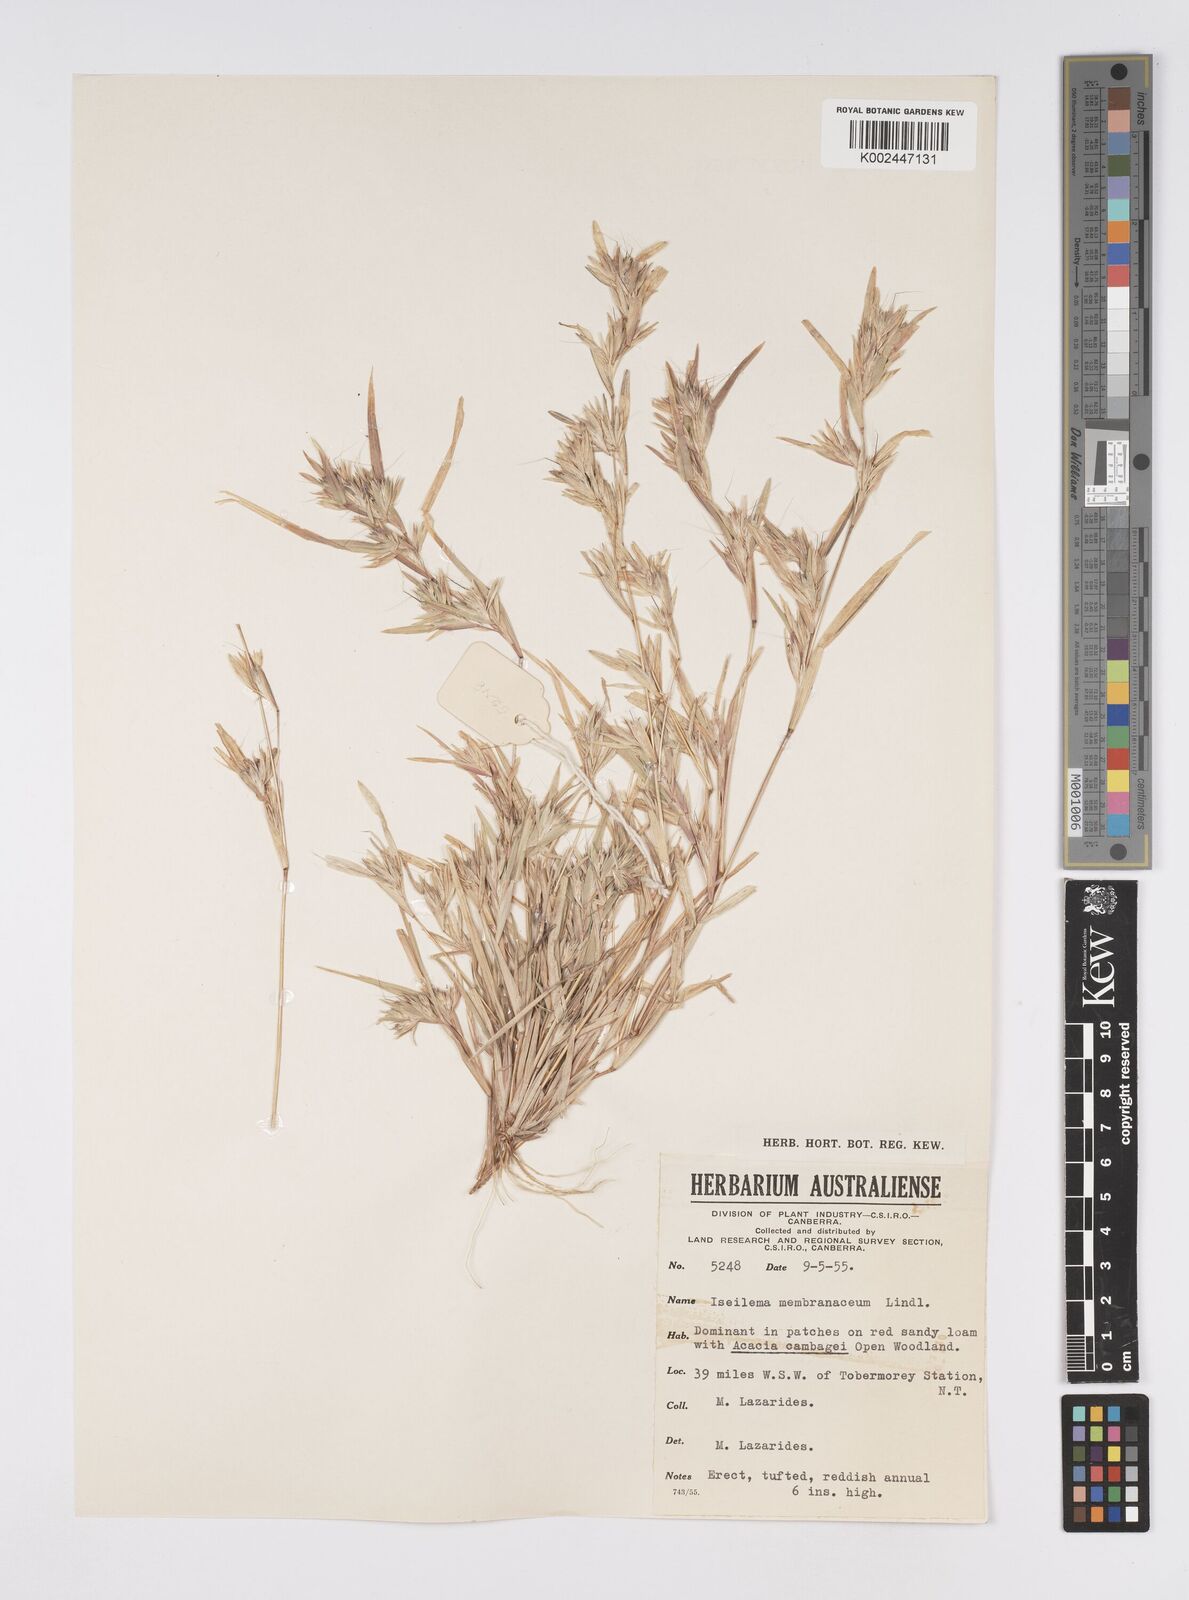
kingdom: Plantae
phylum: Tracheophyta
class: Liliopsida
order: Poales
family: Poaceae
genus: Iseilema
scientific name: Iseilema membranaceum
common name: Small flinders grass
